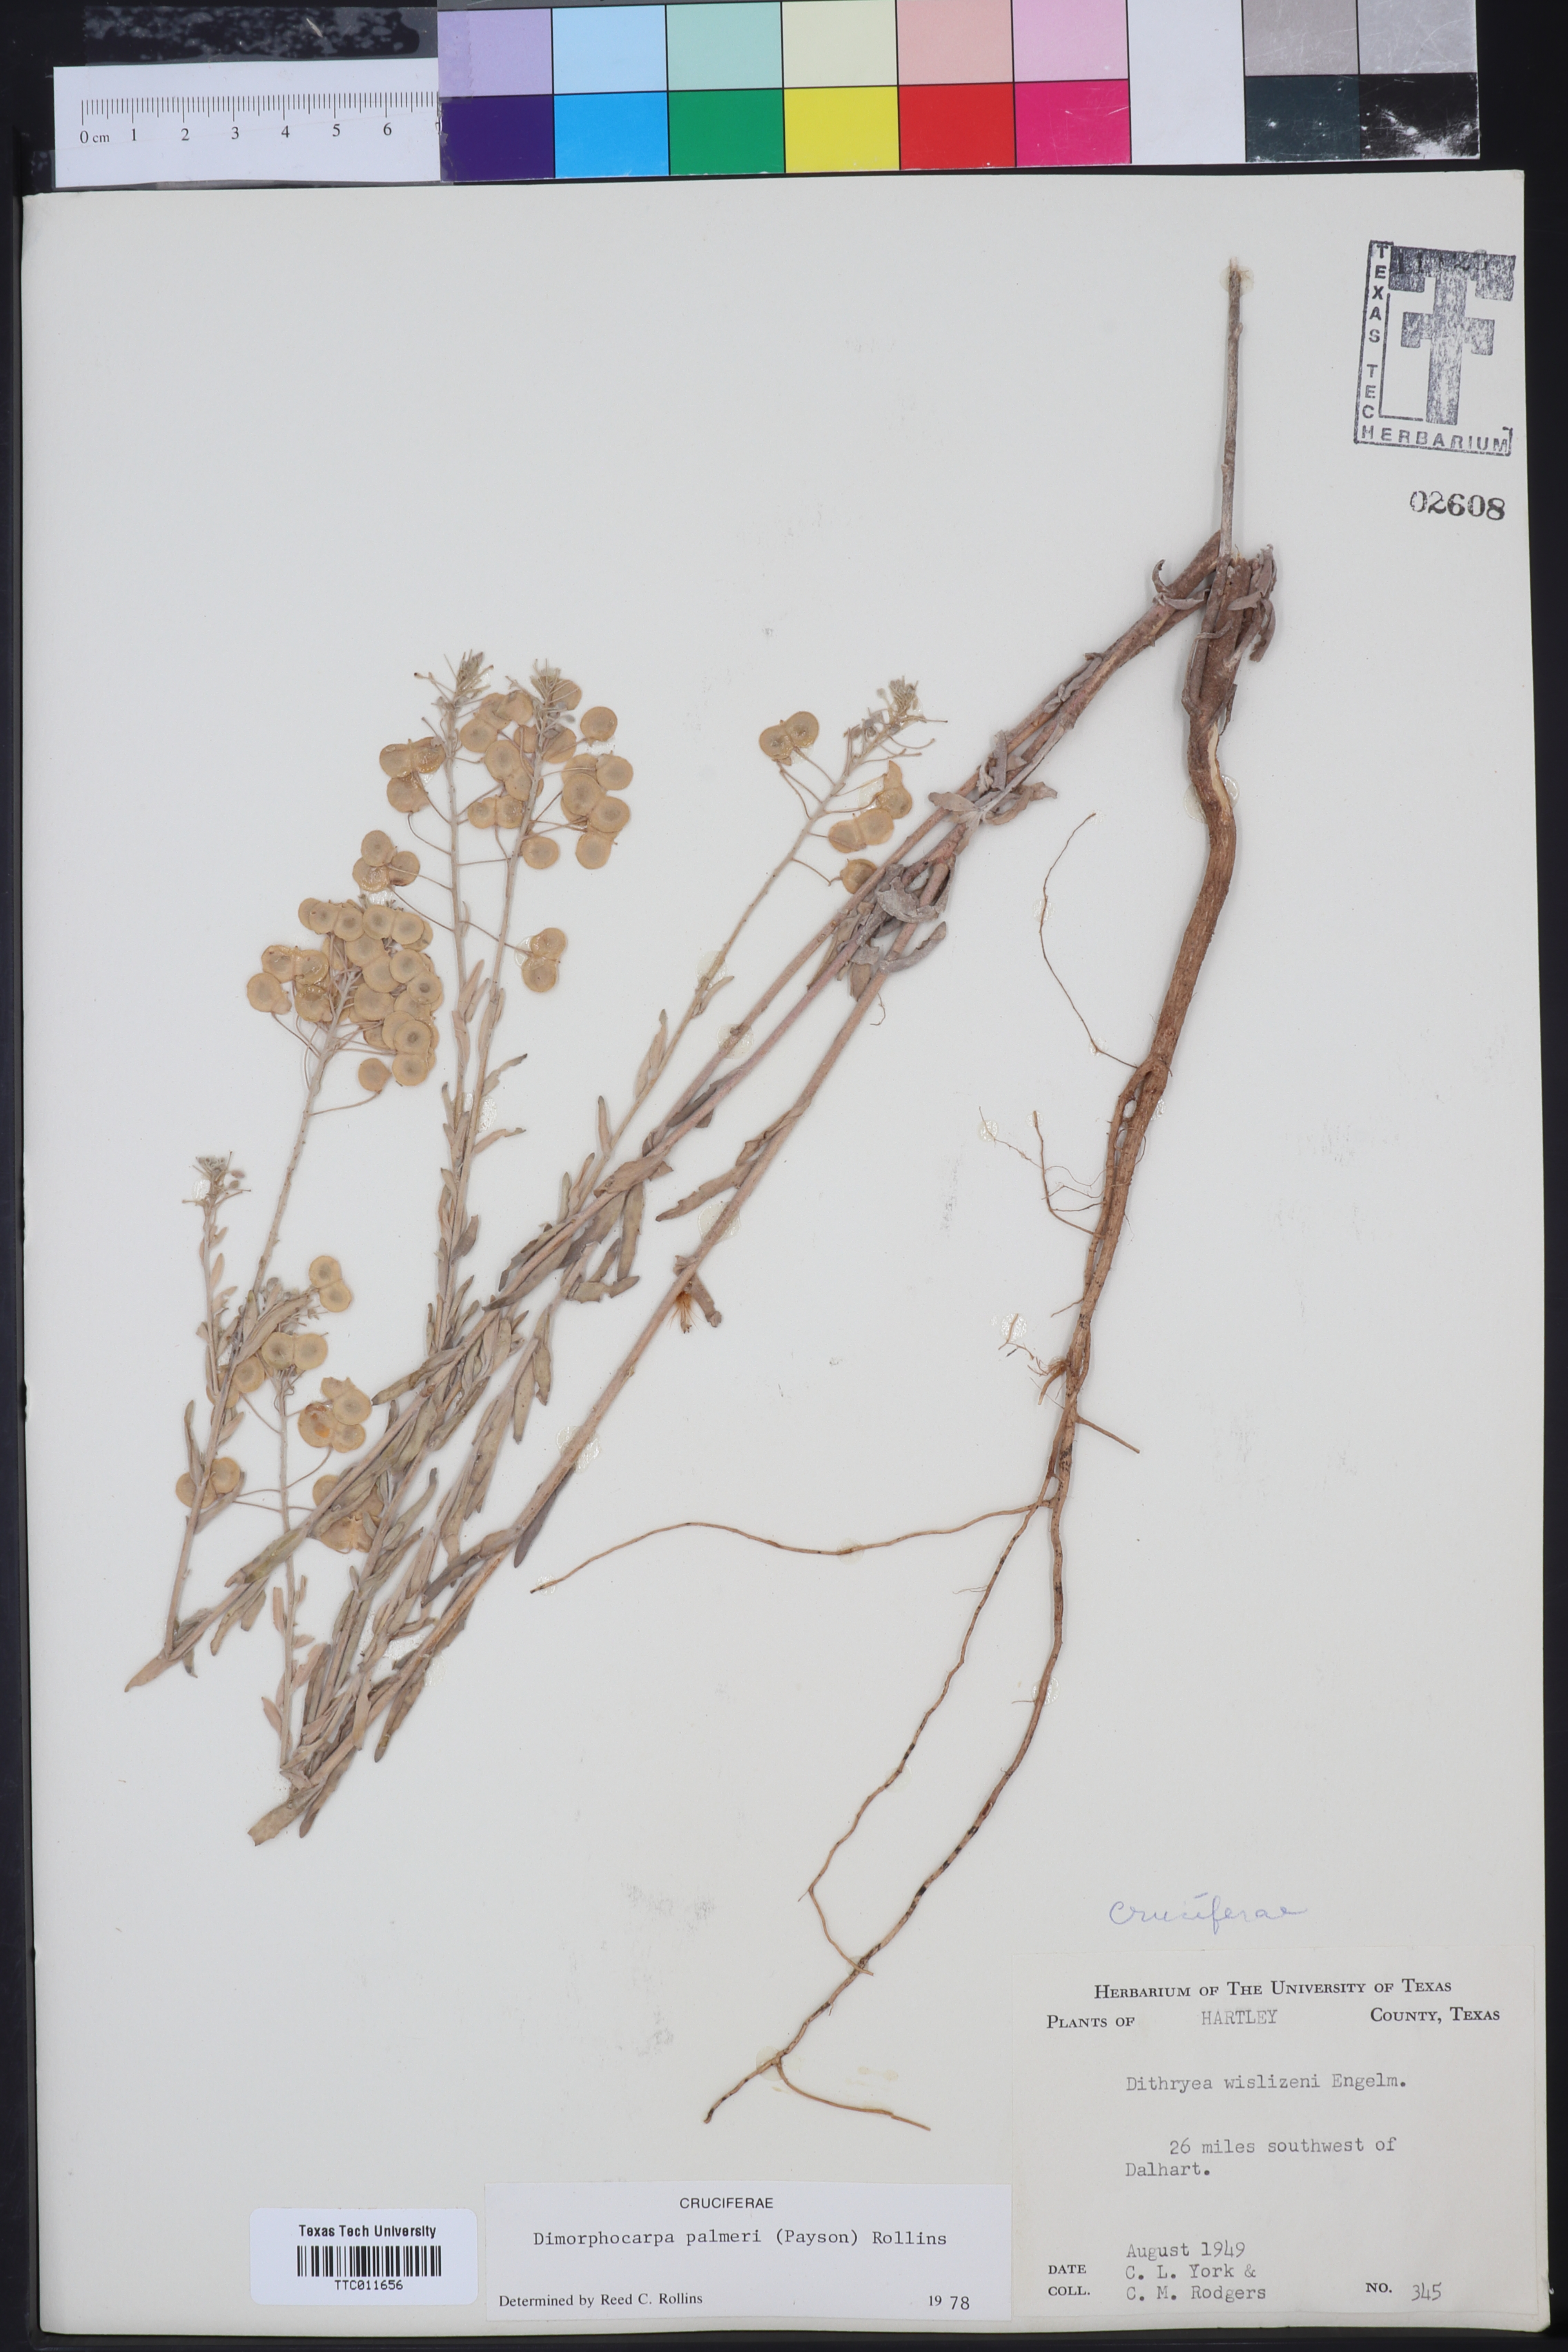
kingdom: Plantae
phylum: Tracheophyta
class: Magnoliopsida
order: Brassicales
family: Brassicaceae
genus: Dimorphocarpa
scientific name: Dimorphocarpa candicans
